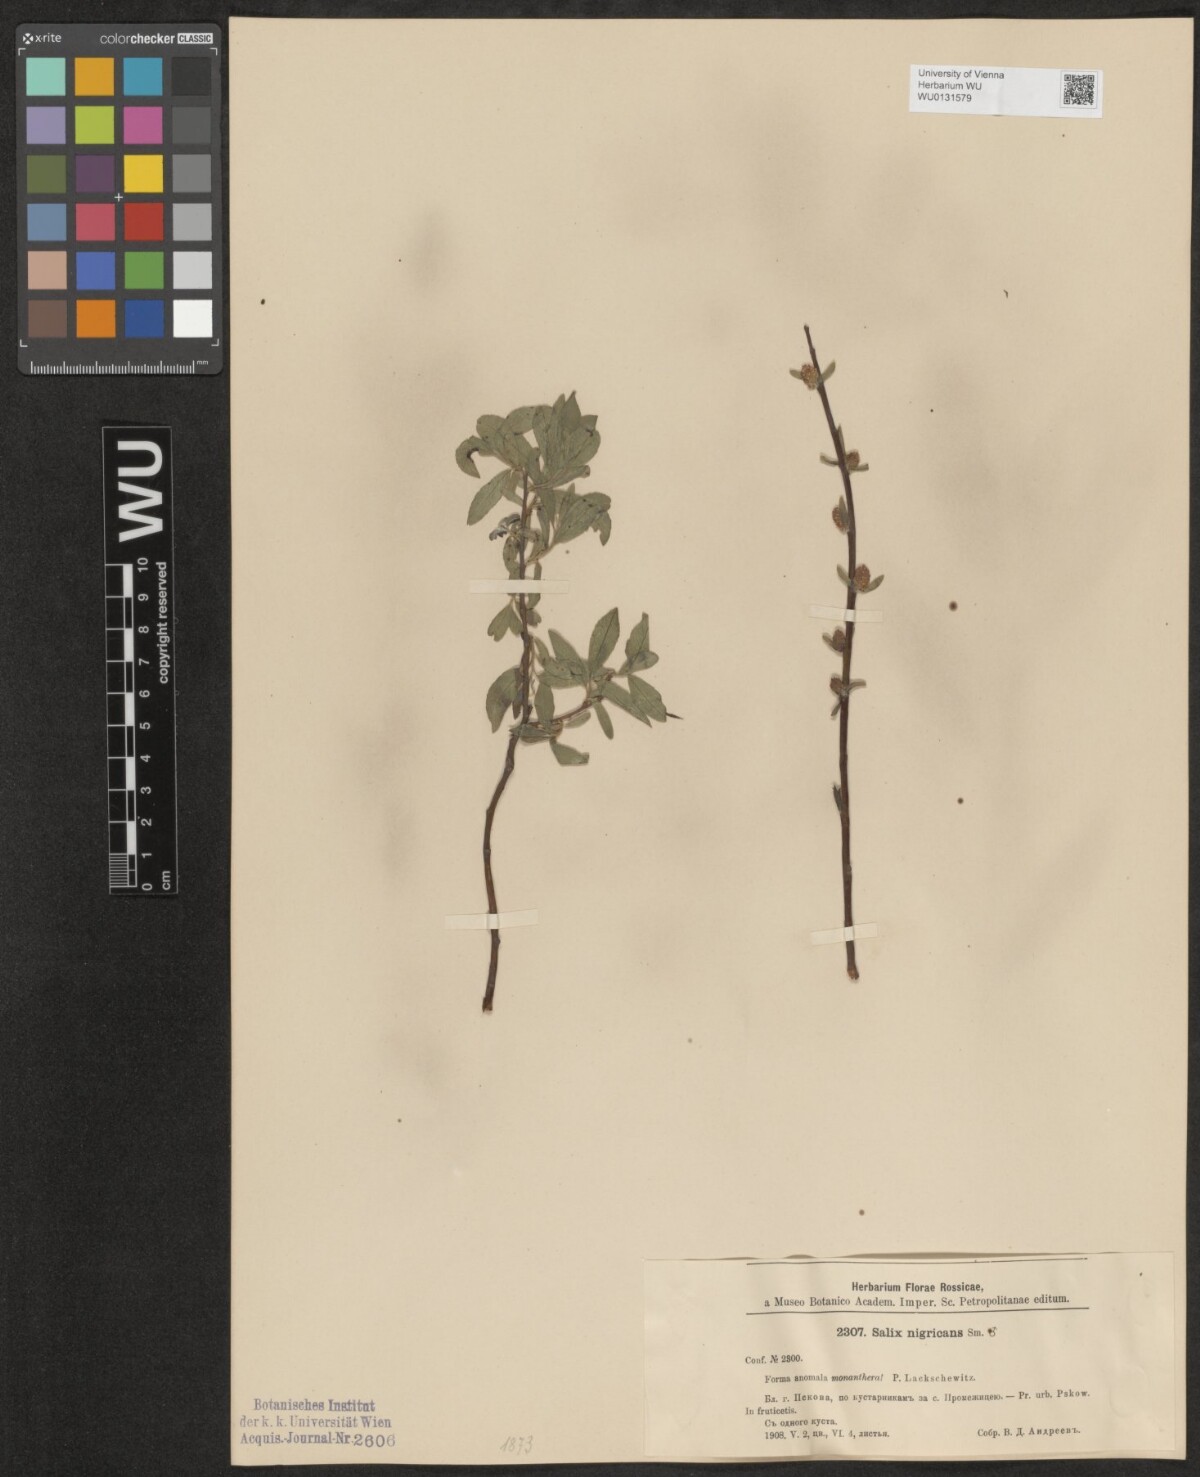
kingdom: Plantae
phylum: Tracheophyta
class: Magnoliopsida
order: Malpighiales
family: Salicaceae
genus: Salix
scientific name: Salix myrsinifolia
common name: Dark-leaved willow
